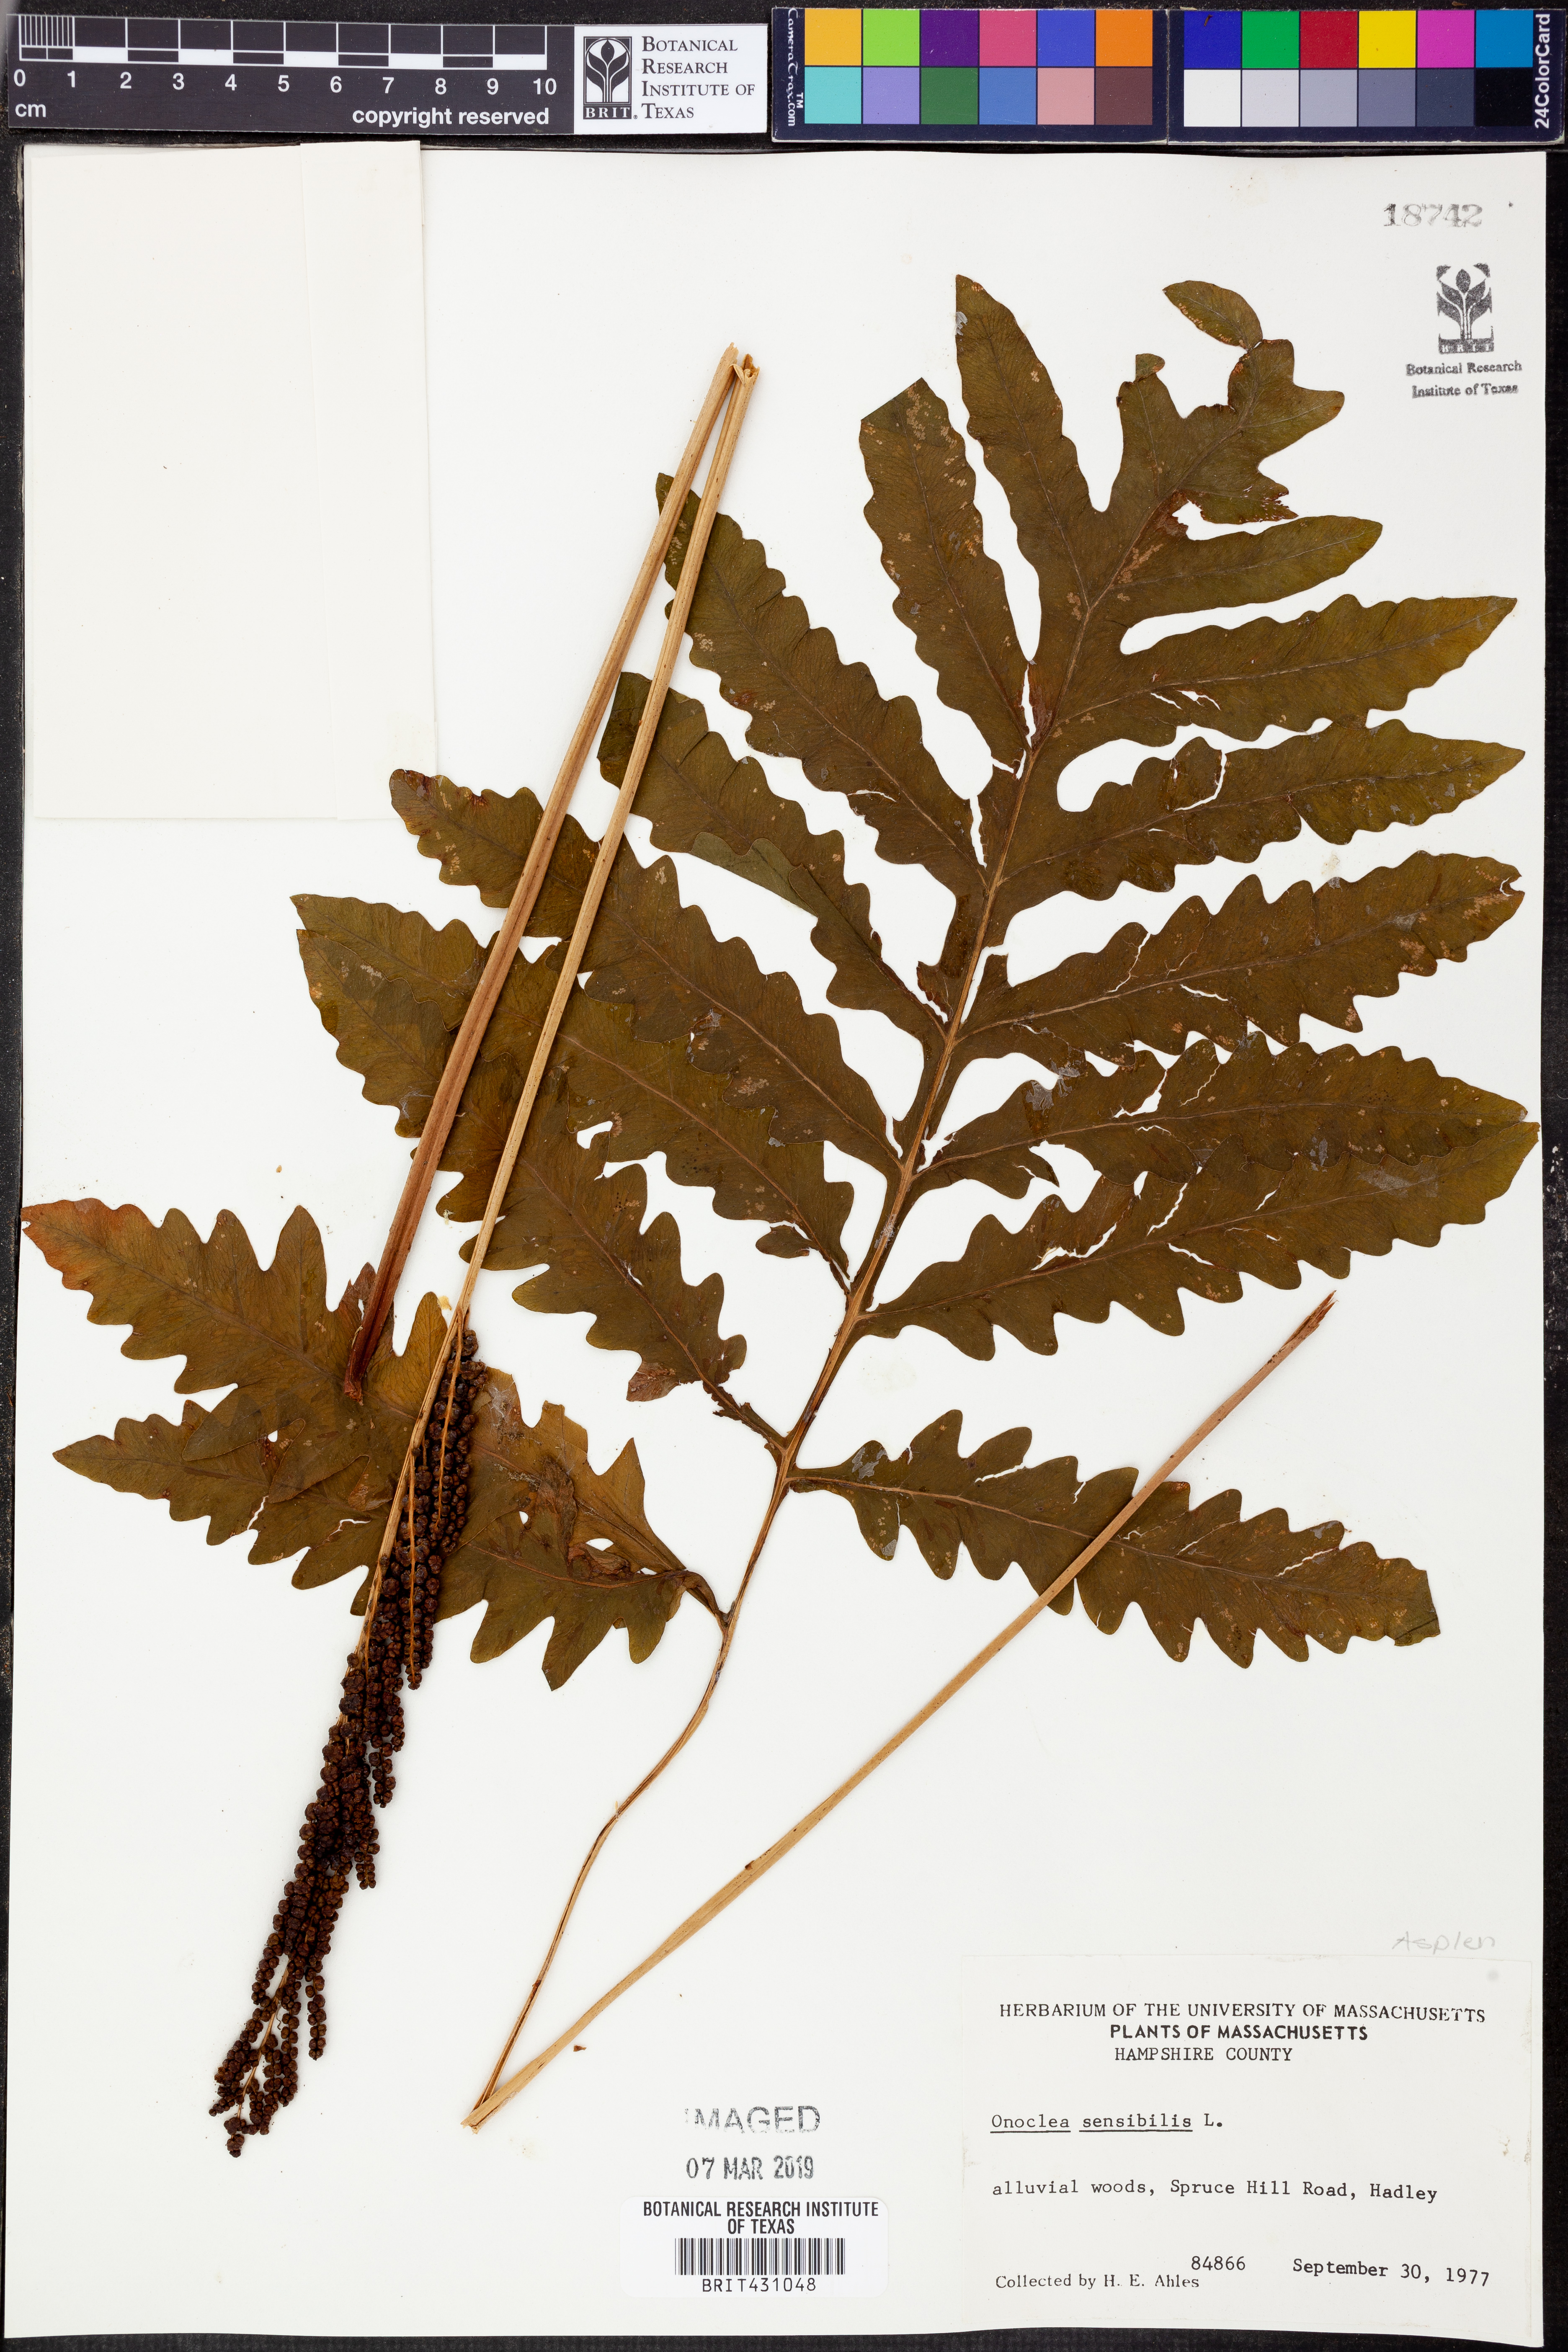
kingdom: Plantae
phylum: Tracheophyta
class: Polypodiopsida
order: Polypodiales
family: Onocleaceae
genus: Onoclea
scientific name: Onoclea sensibilis
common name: Sensitive fern
